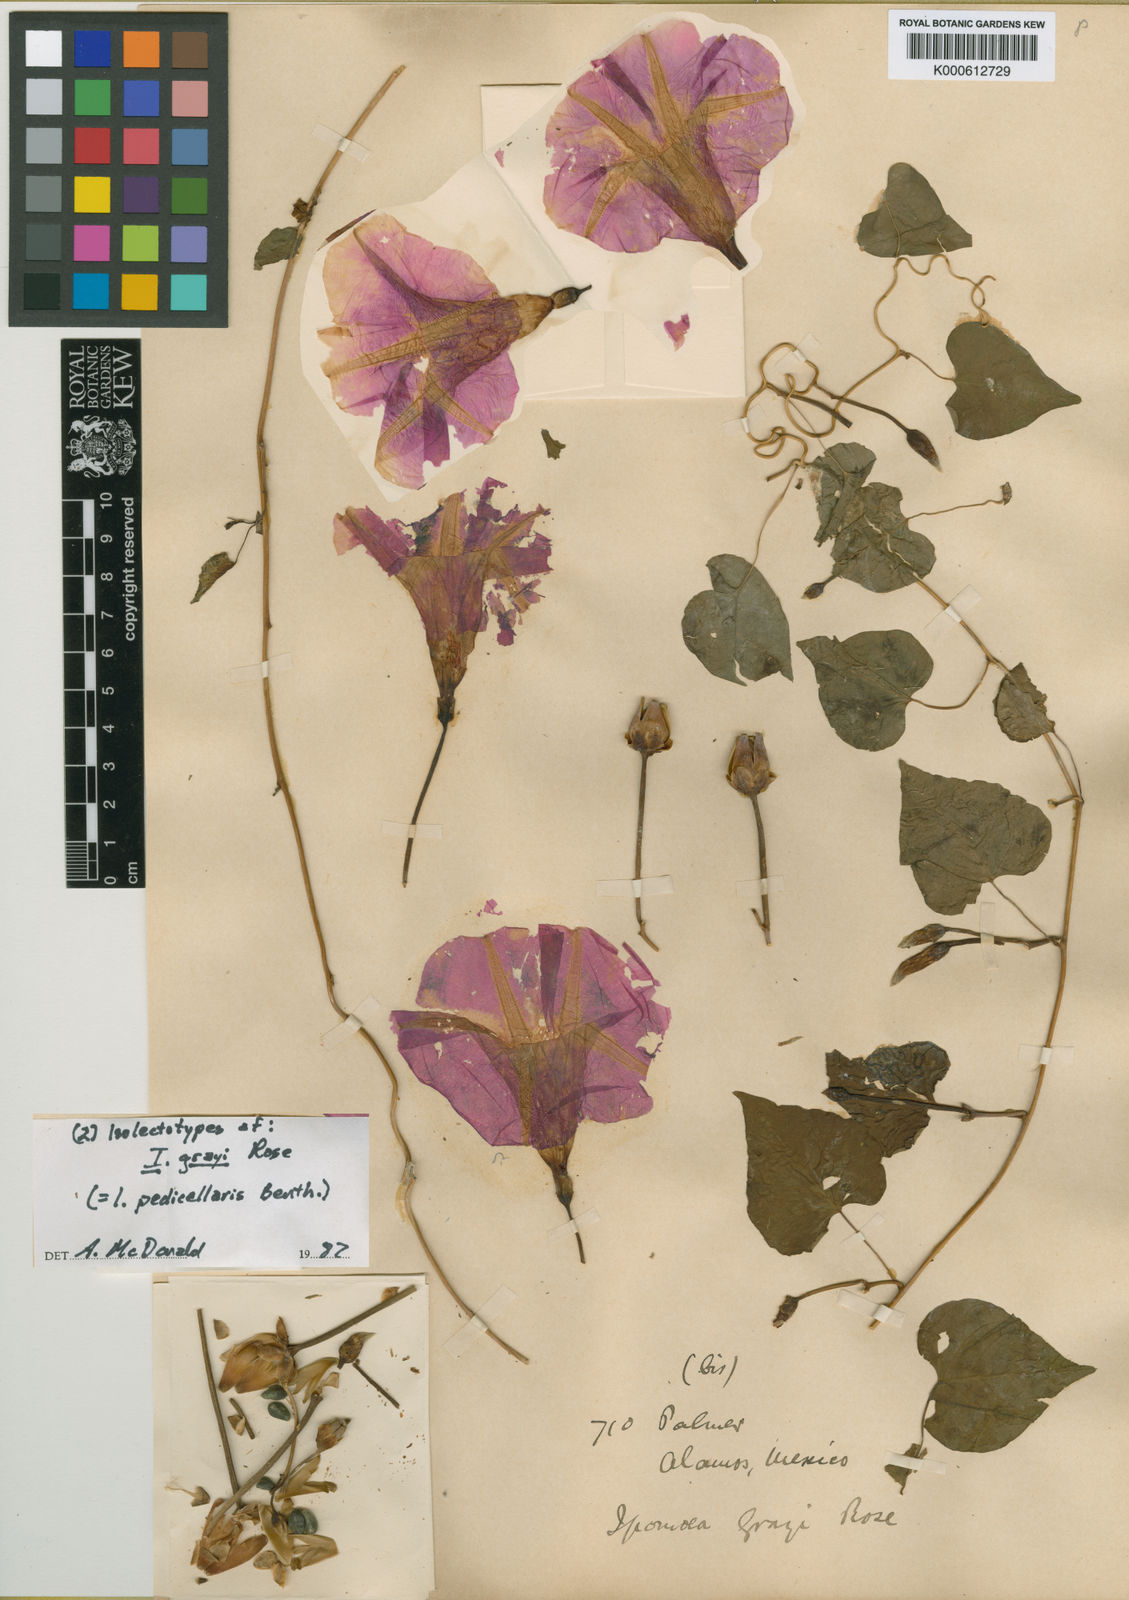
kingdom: Plantae
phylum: Tracheophyta
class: Magnoliopsida
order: Solanales
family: Convolvulaceae
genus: Ipomoea
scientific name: Ipomoea pedicellaris
